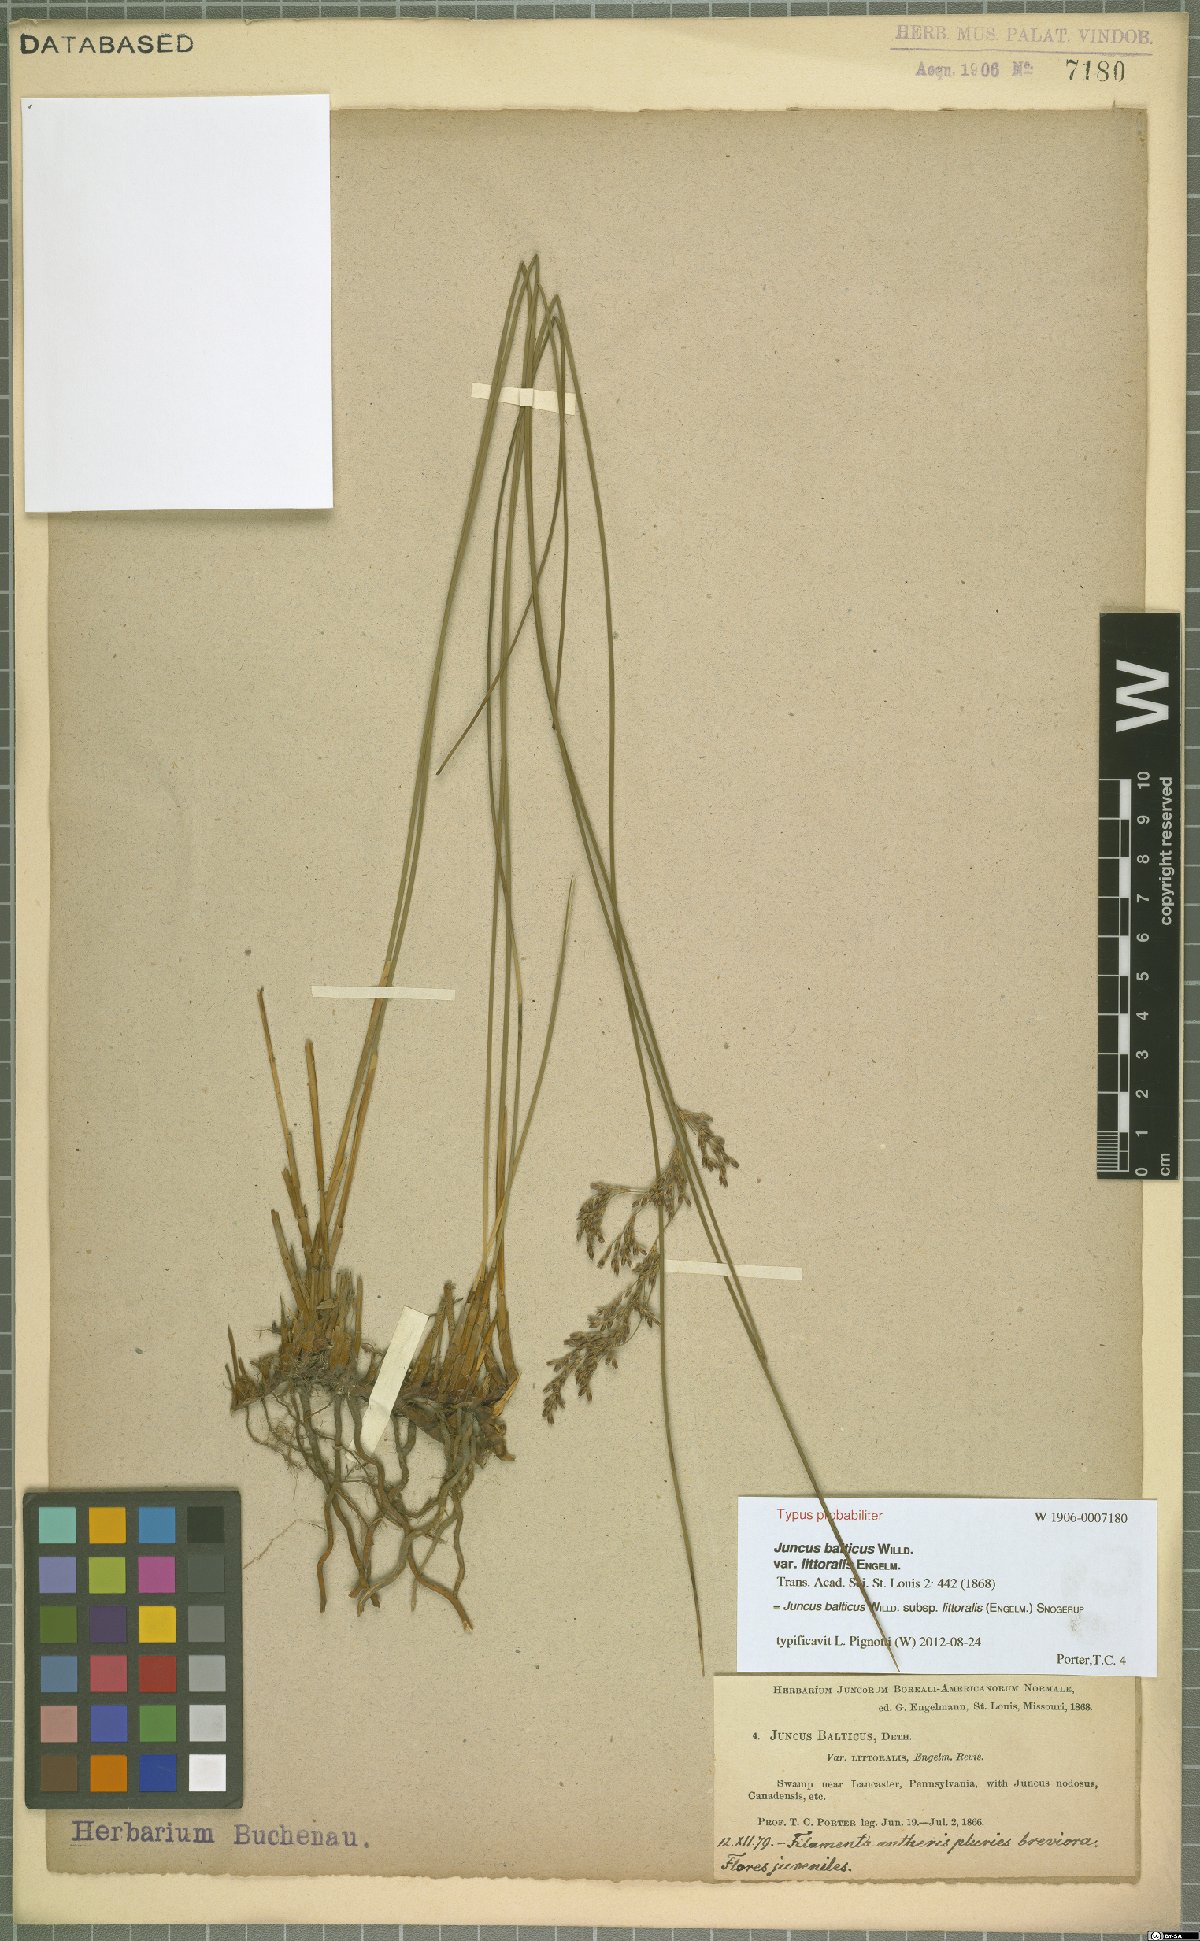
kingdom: Plantae
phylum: Tracheophyta
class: Liliopsida
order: Poales
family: Juncaceae
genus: Juncus
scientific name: Juncus balticus
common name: Baltic rush
